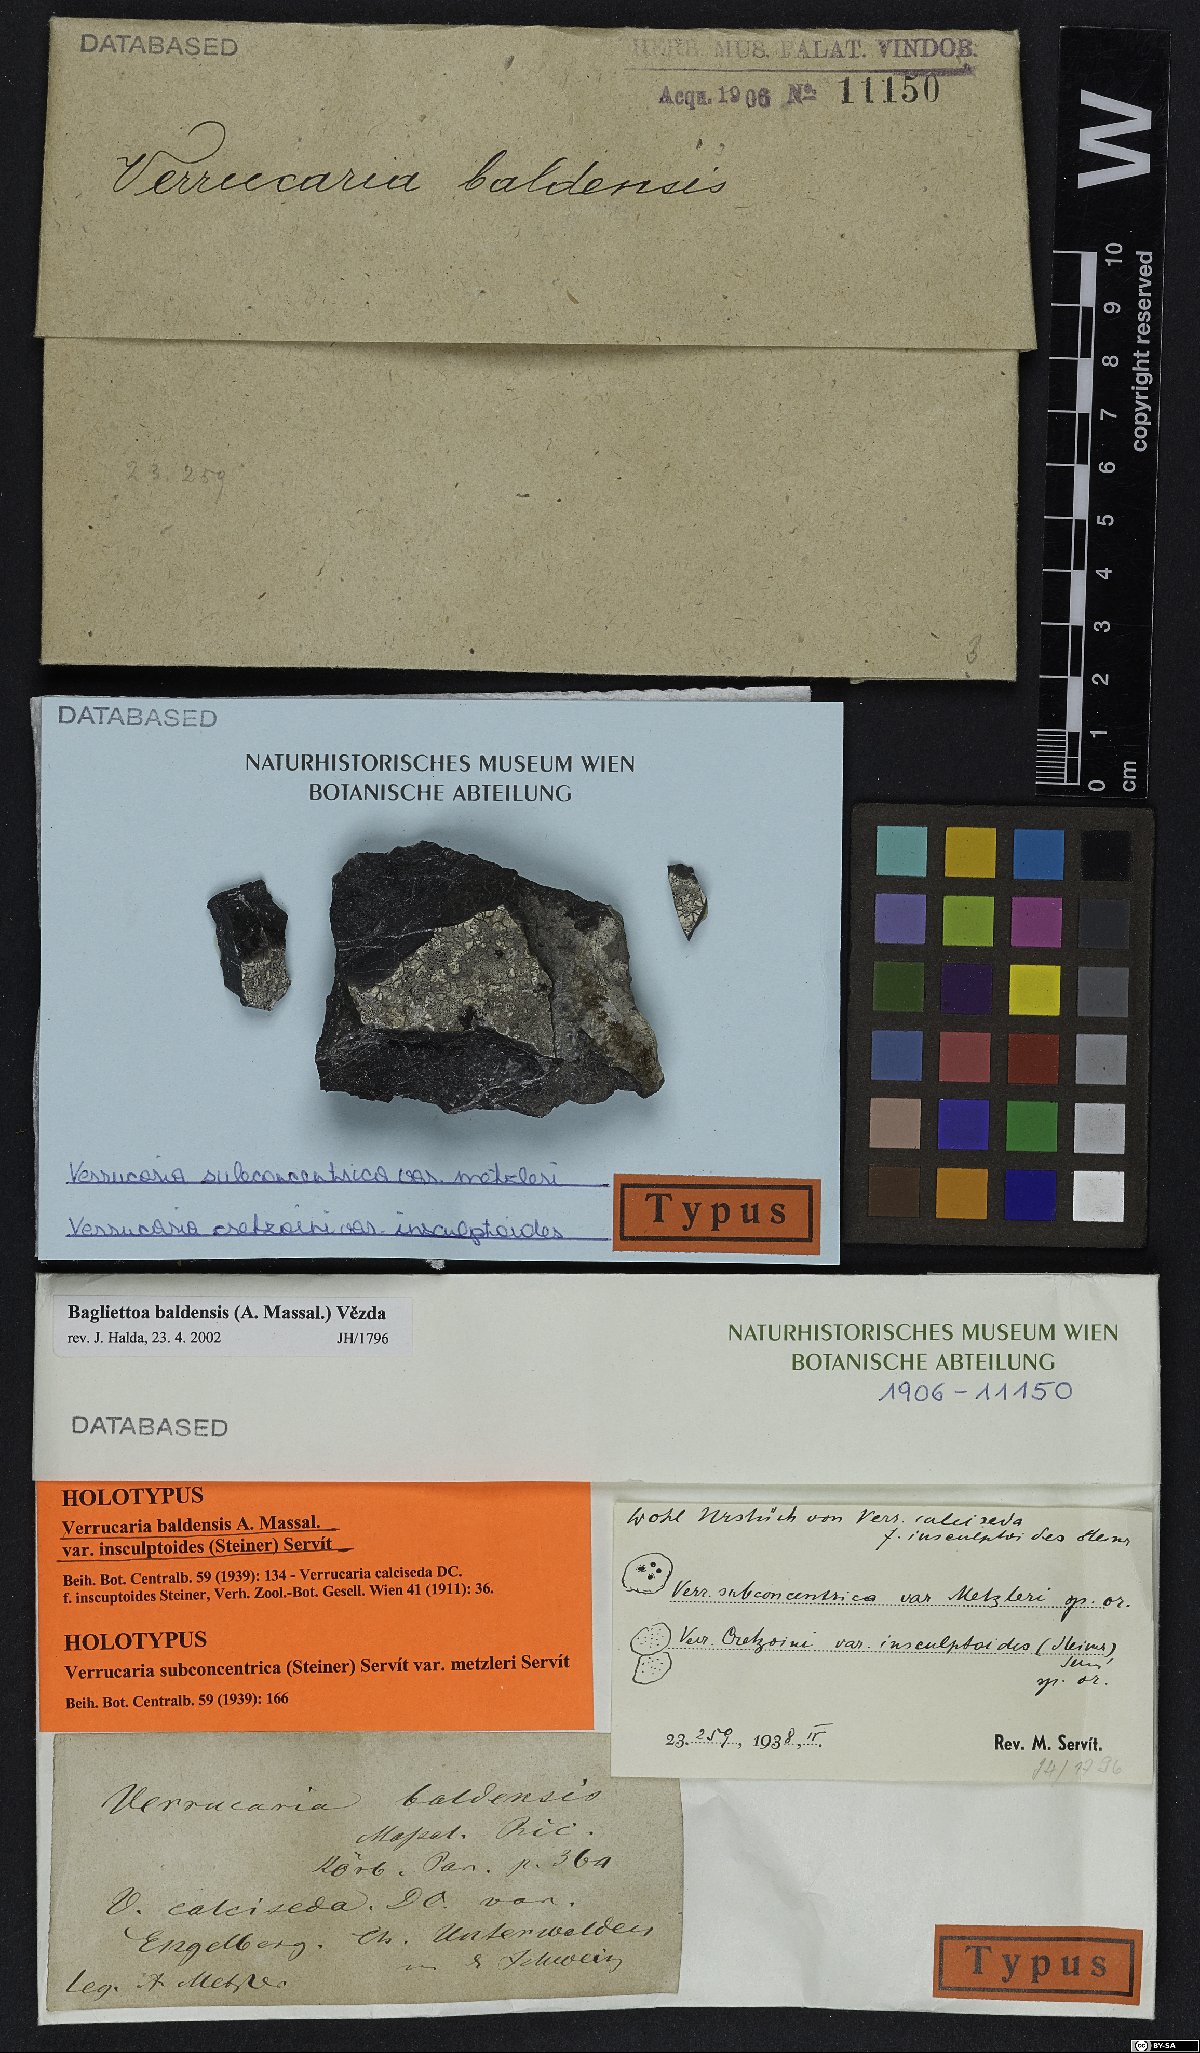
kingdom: Fungi
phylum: Ascomycota
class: Eurotiomycetes
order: Verrucariales
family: Verrucariaceae
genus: Bagliettoa
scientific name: Bagliettoa calciseda
